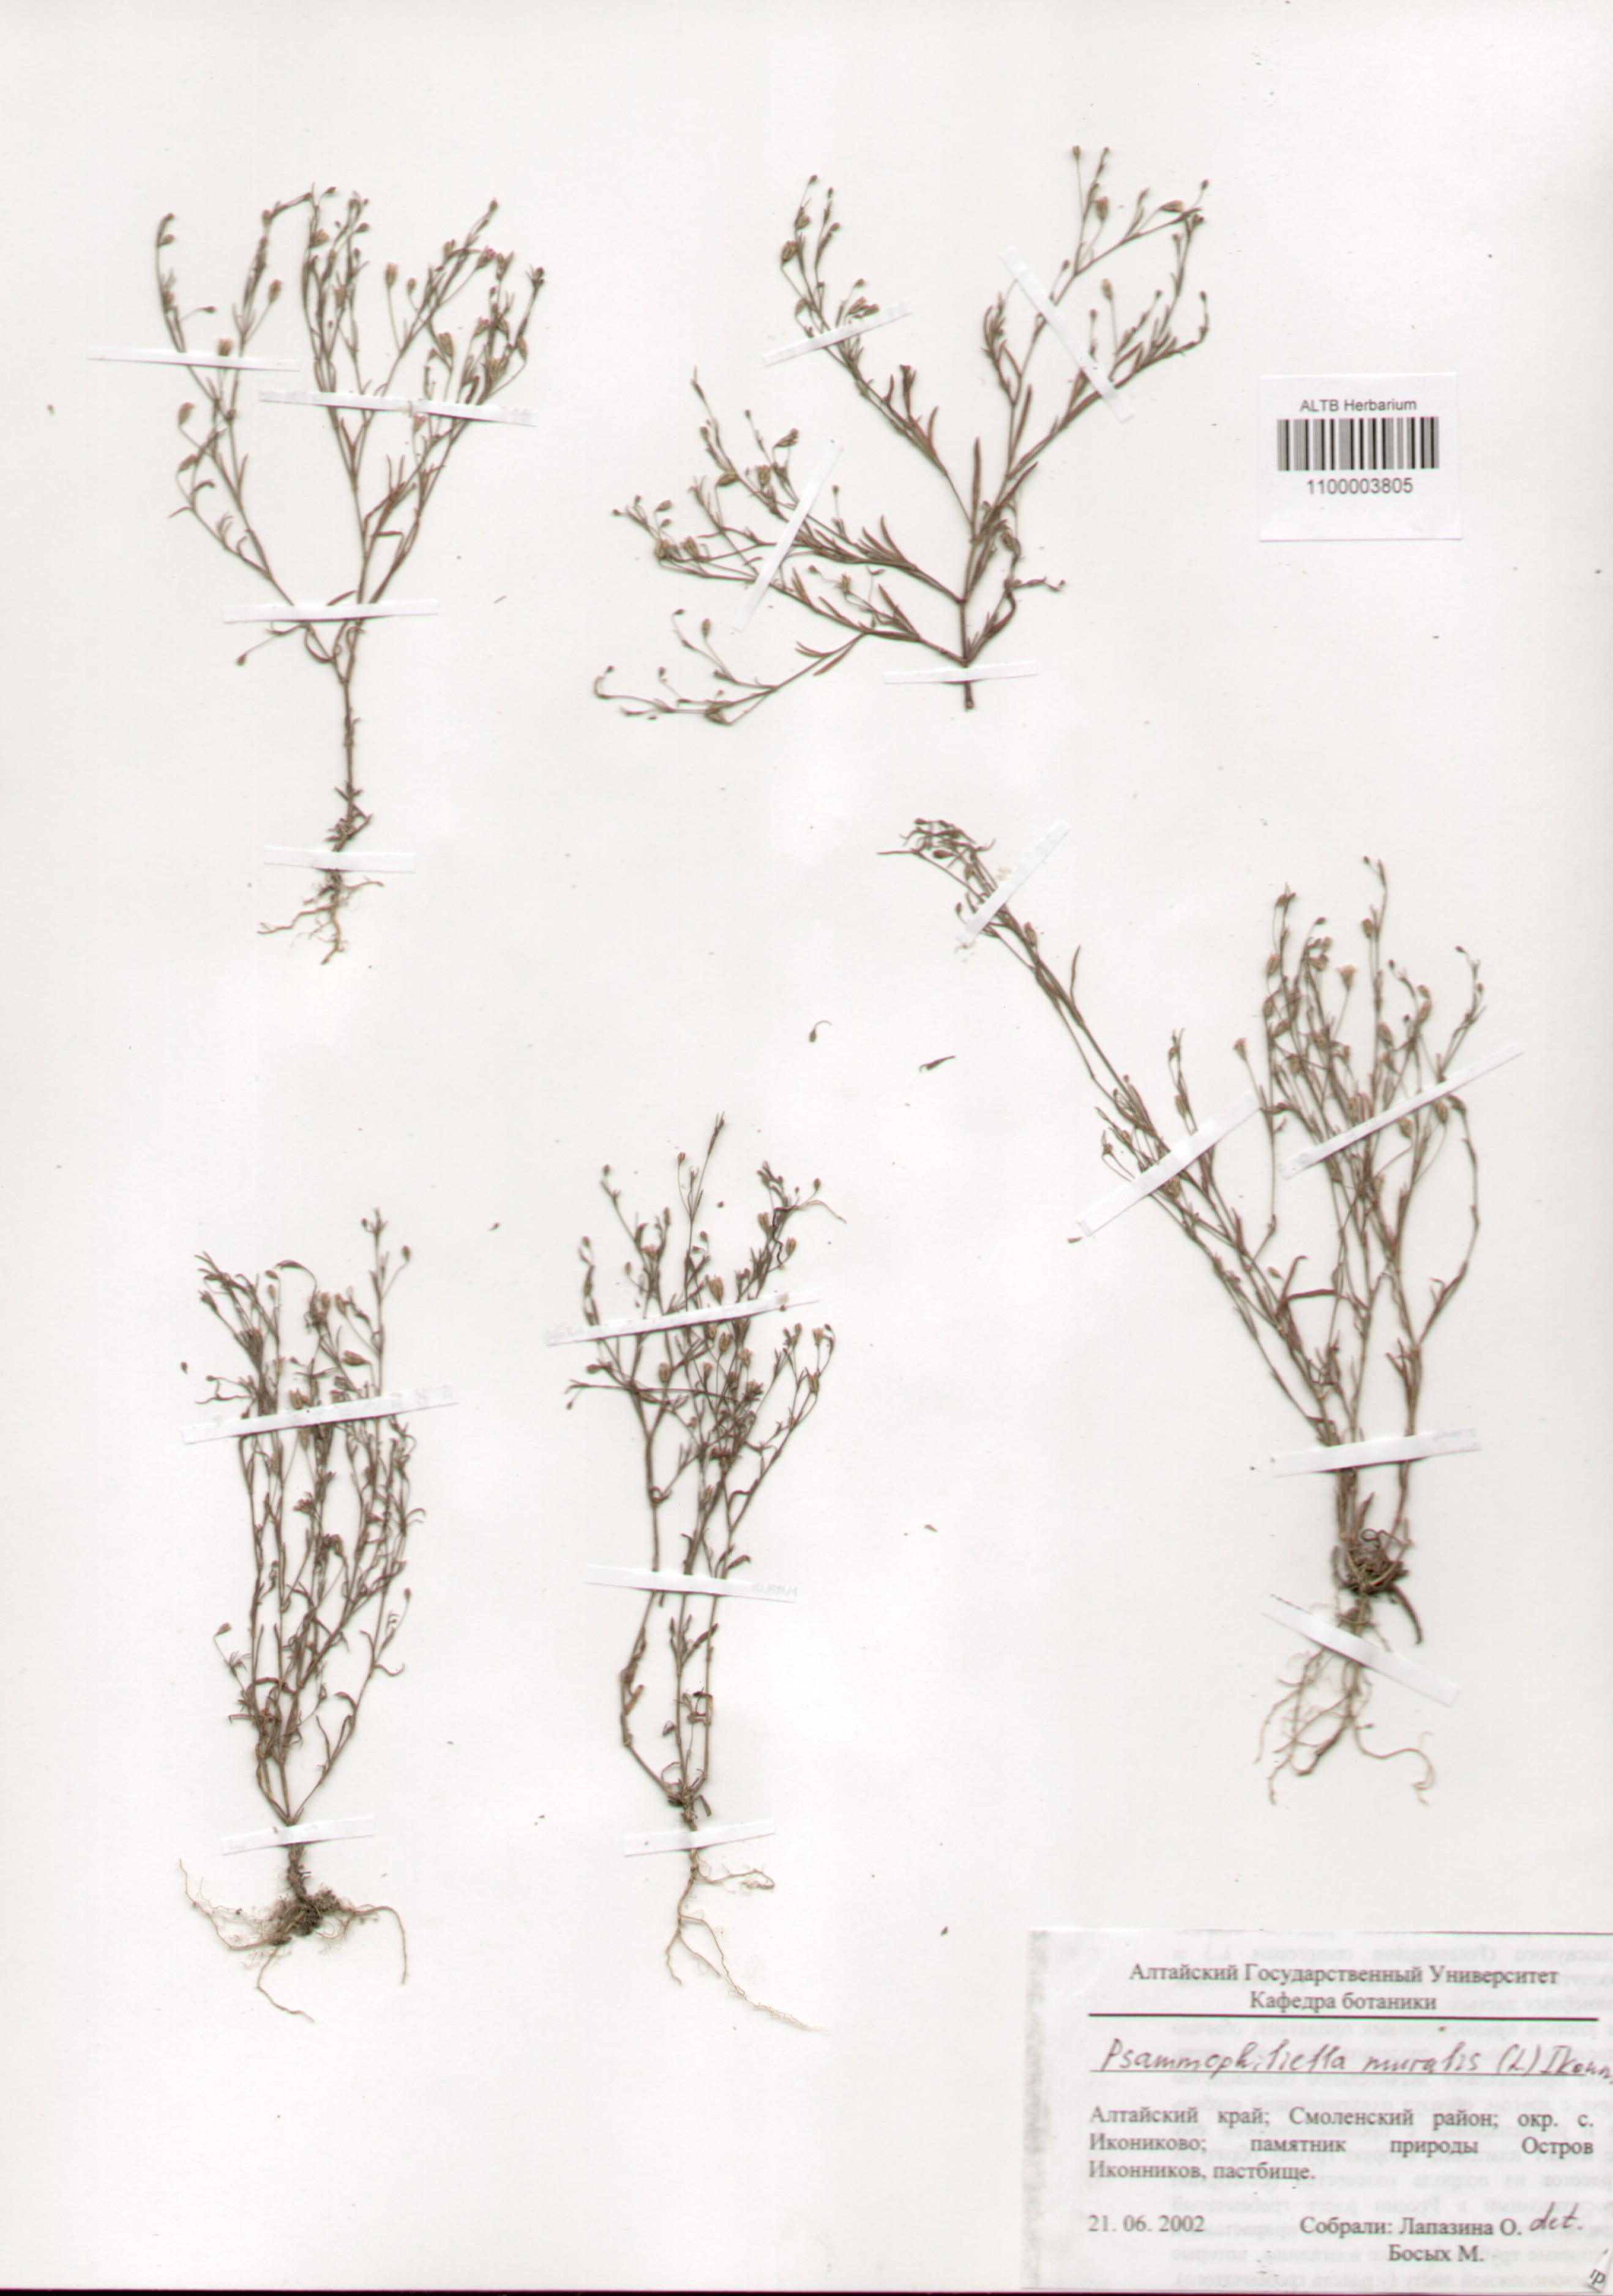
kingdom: Plantae
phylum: Tracheophyta
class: Magnoliopsida
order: Caryophyllales
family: Caryophyllaceae
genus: Psammophiliella
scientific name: Psammophiliella muralis
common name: Cushion baby's-breath
